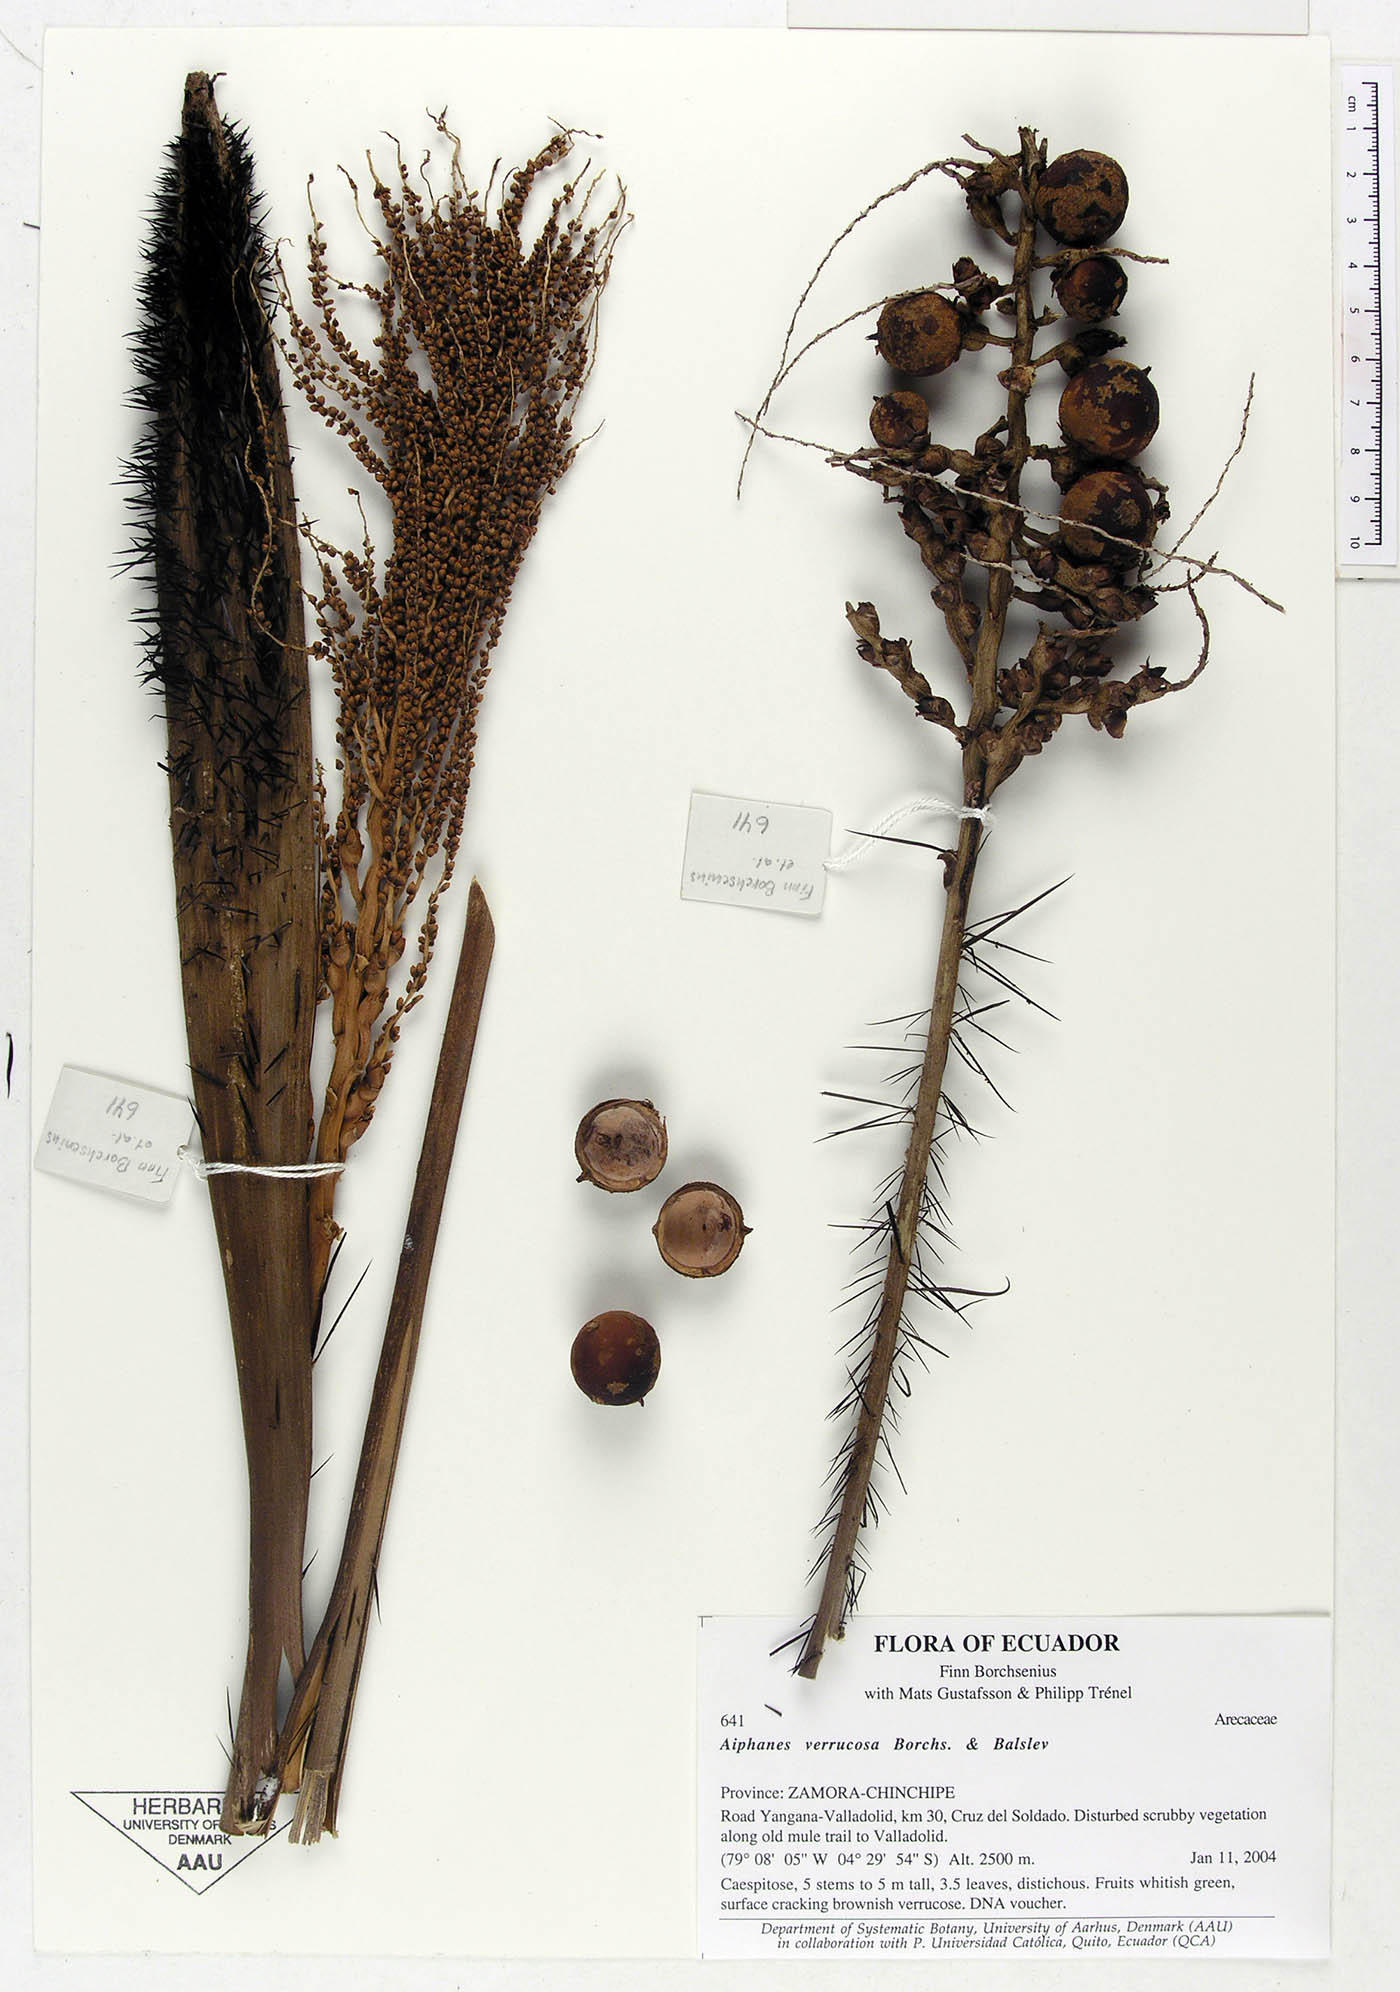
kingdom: Plantae
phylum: Tracheophyta
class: Liliopsida
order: Arecales
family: Arecaceae
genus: Aiphanes
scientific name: Aiphanes verrucosa
